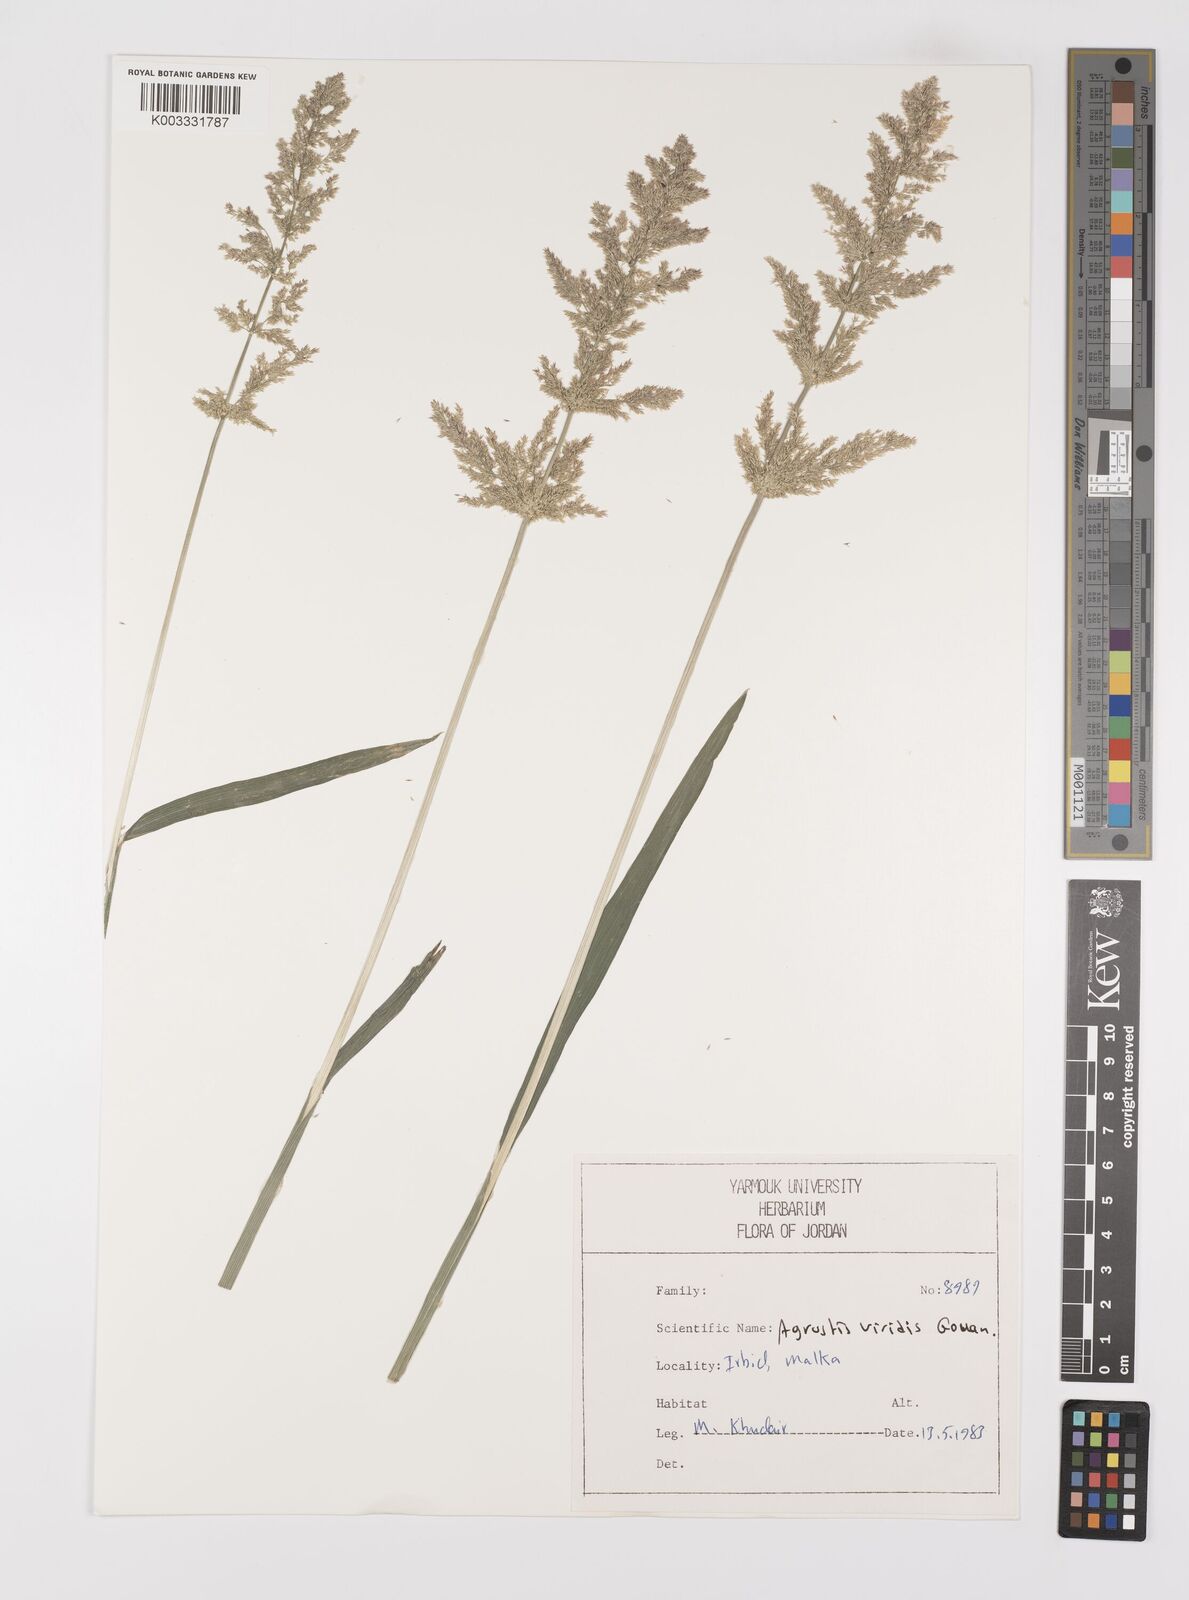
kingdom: Plantae
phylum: Tracheophyta
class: Liliopsida
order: Poales
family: Poaceae
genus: Polypogon
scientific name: Polypogon viridis
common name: Water bent
